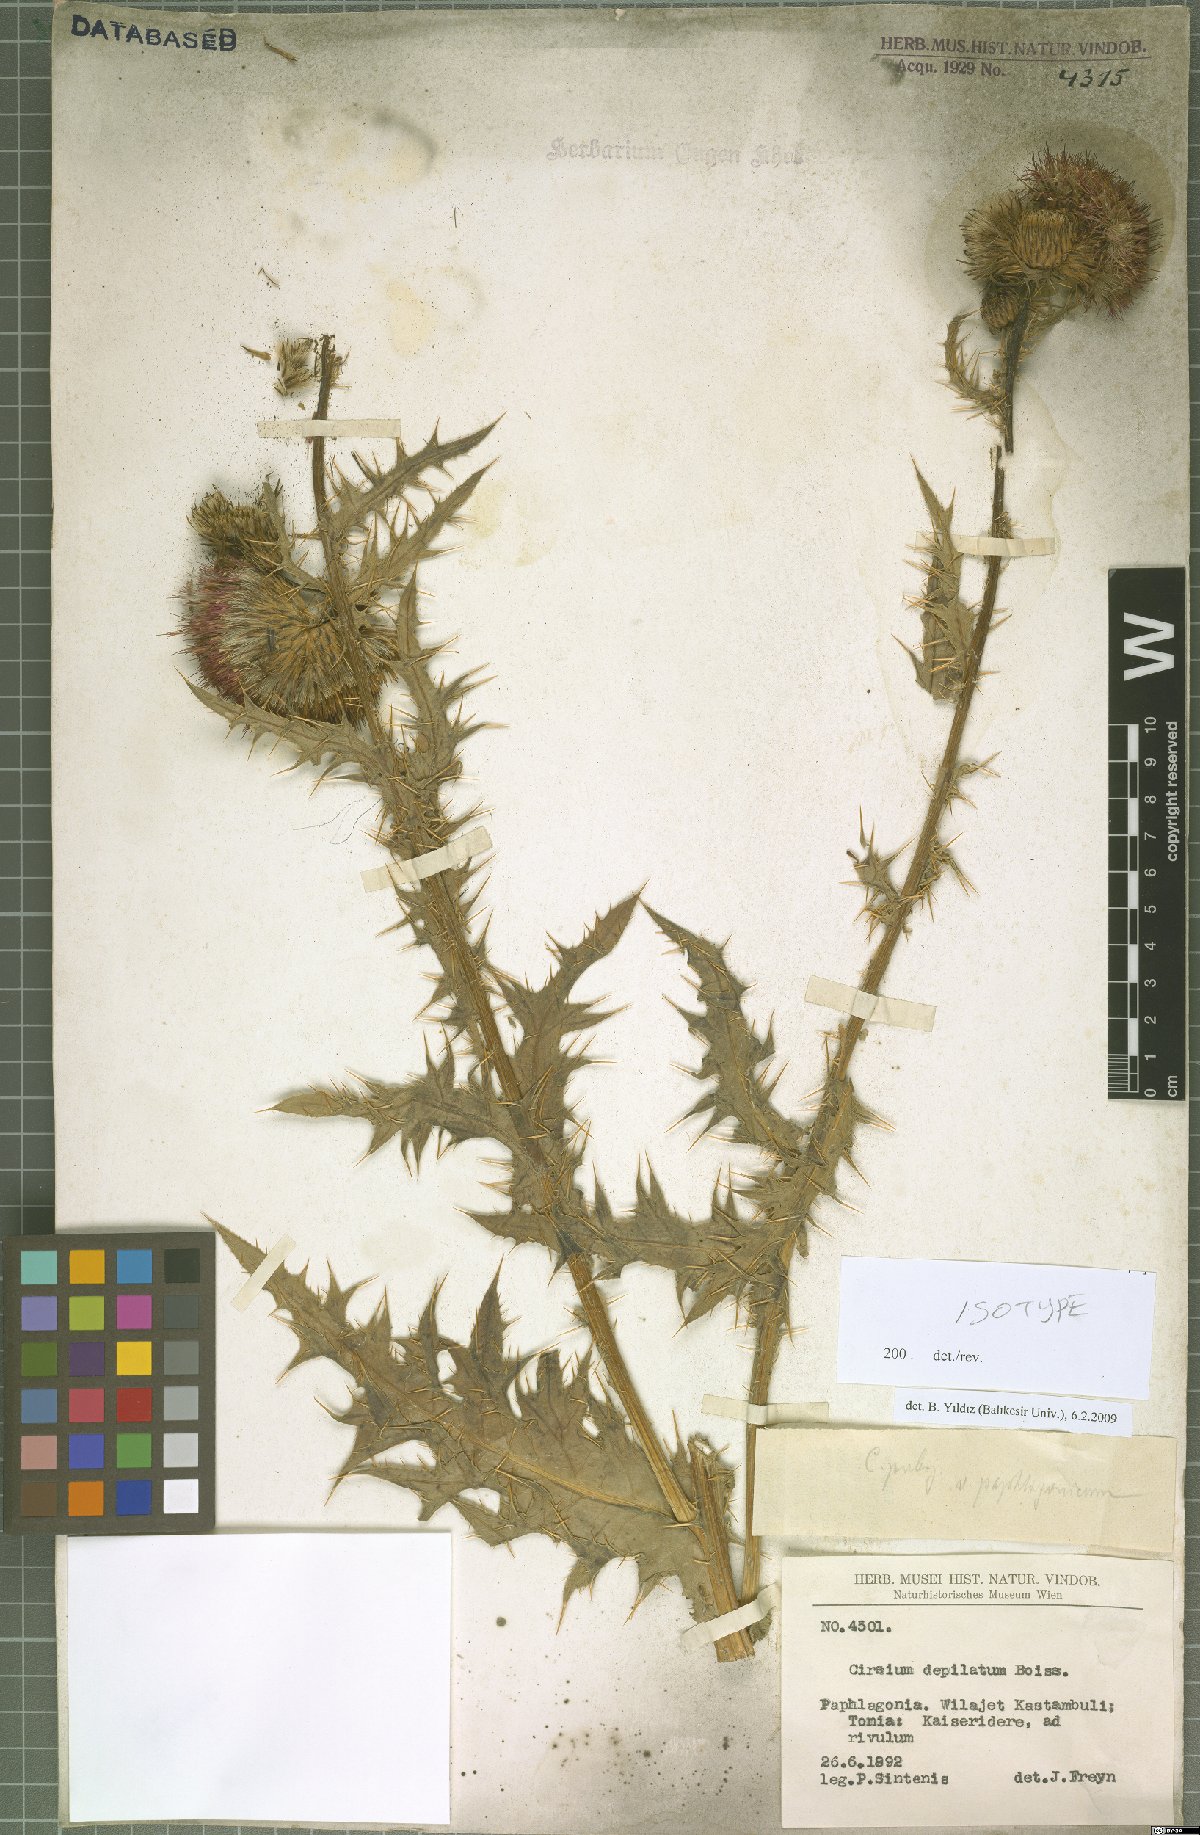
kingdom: Plantae
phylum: Tracheophyta
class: Magnoliopsida
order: Asterales
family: Asteraceae
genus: Cirsium
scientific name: Cirsium pubigerum
